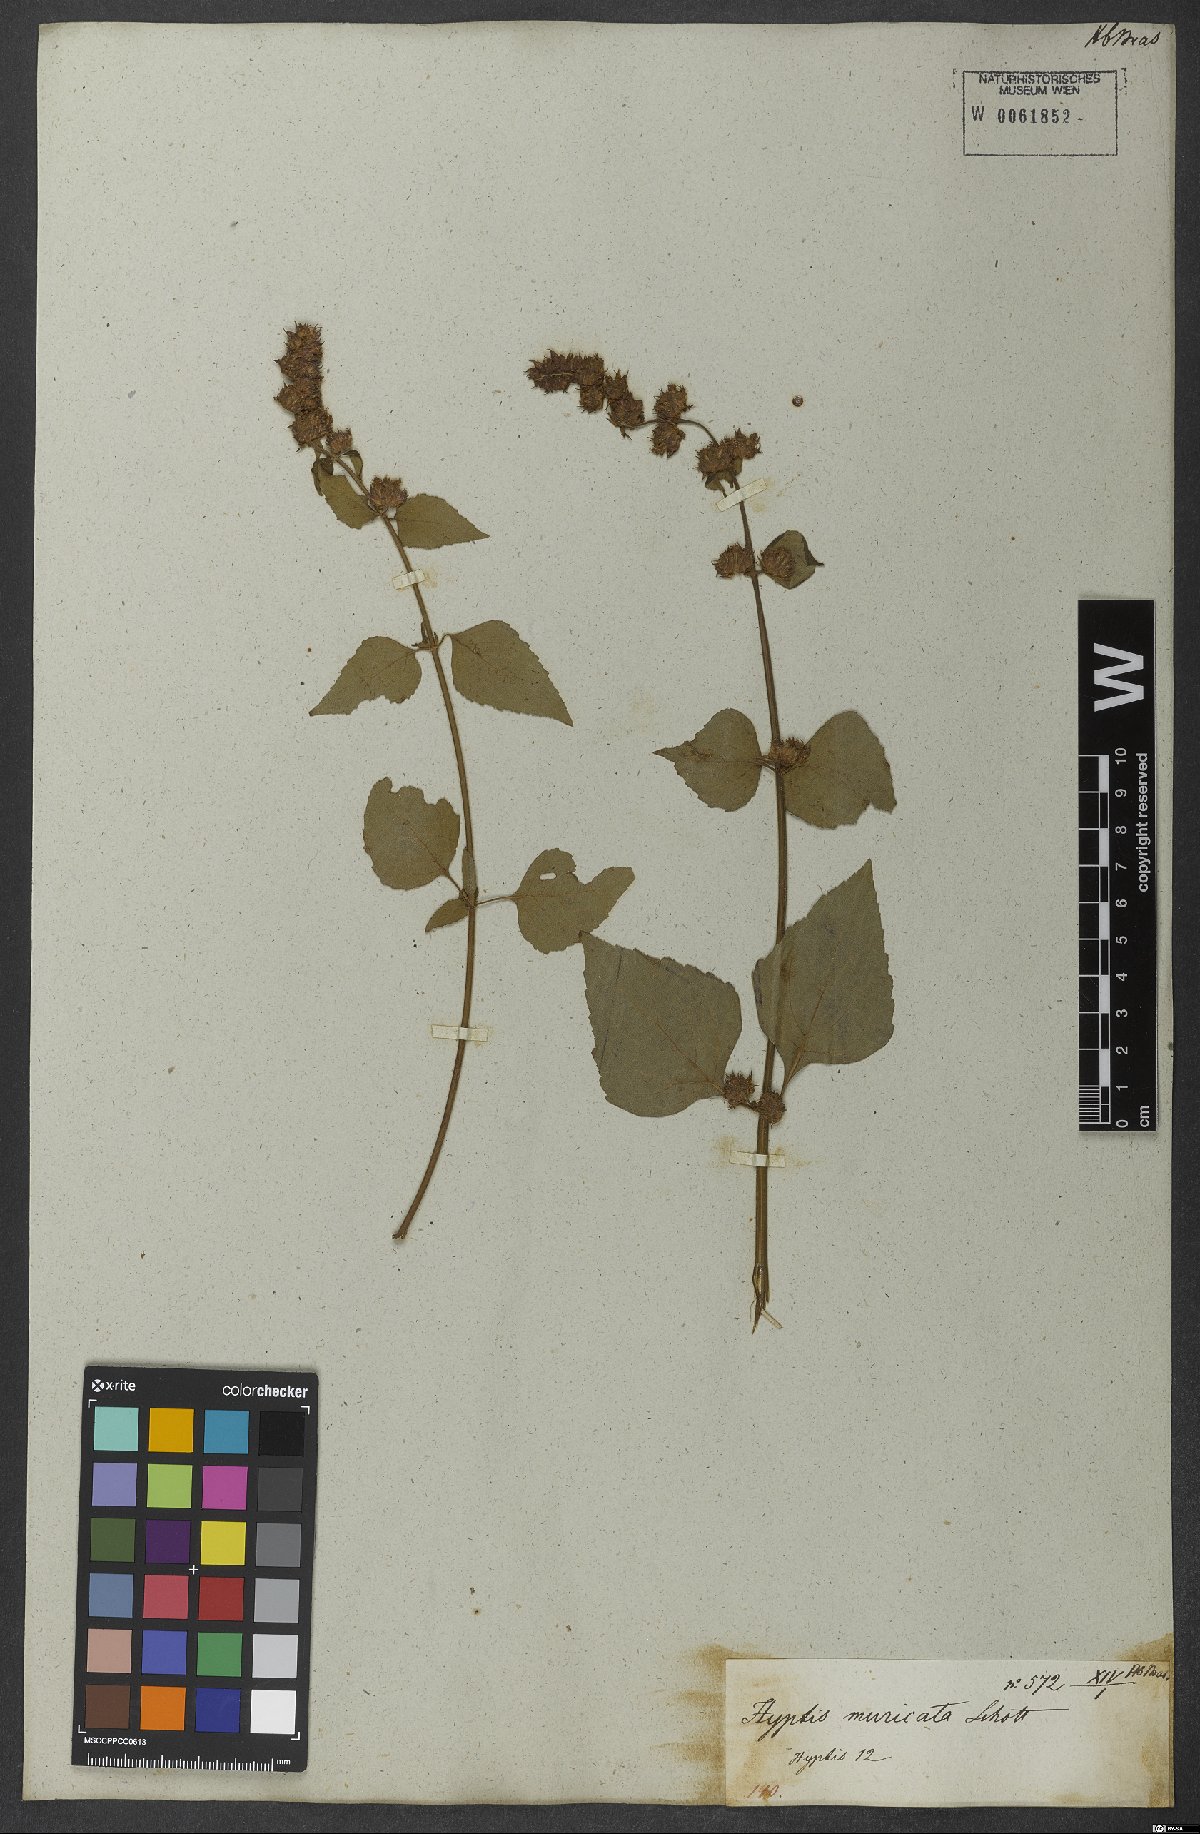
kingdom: Plantae
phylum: Tracheophyta
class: Magnoliopsida
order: Lamiales
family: Lamiaceae
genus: Cantinoa
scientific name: Cantinoa muricata
